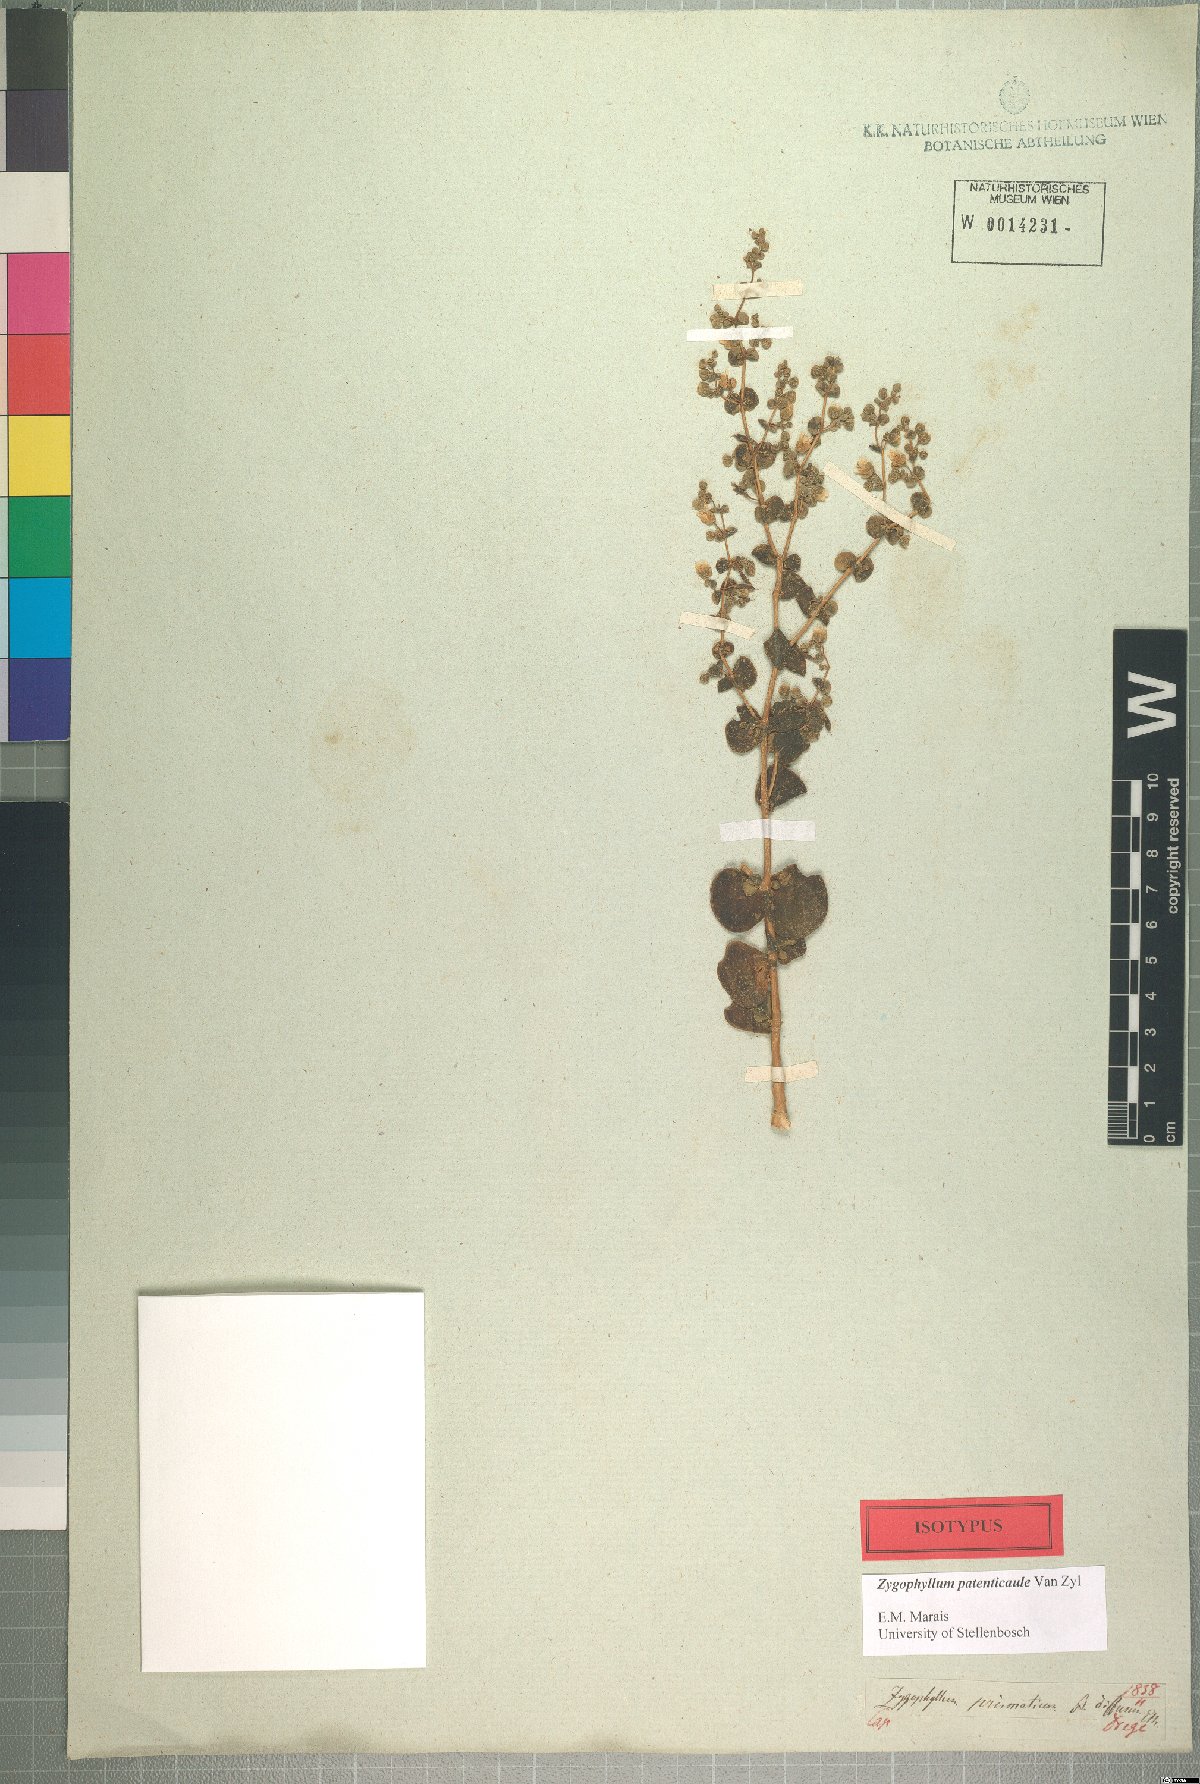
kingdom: Plantae
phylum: Tracheophyta
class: Magnoliopsida
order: Zygophyllales
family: Zygophyllaceae
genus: Tetraena
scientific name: Tetraena prismatocarpa
